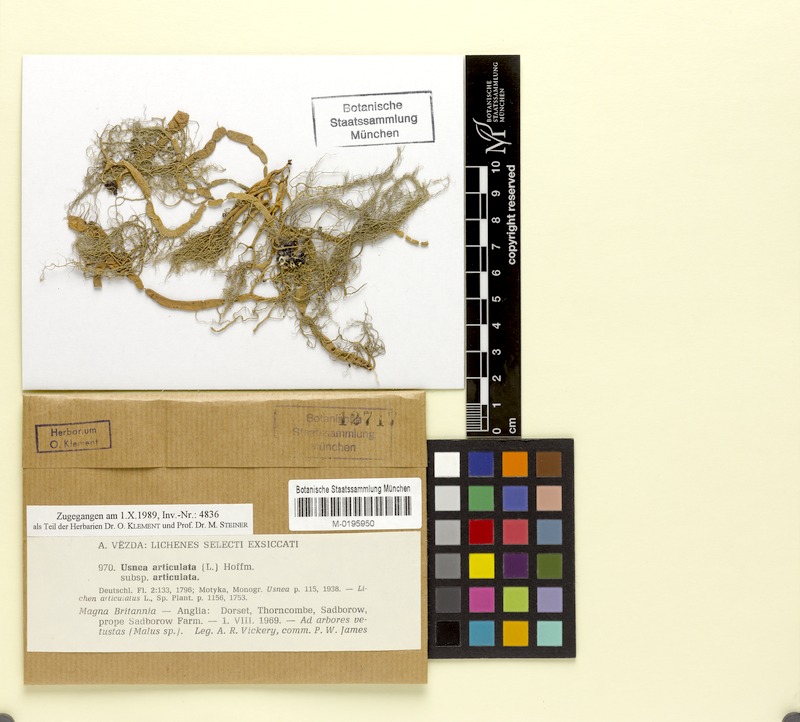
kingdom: Fungi
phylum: Ascomycota
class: Lecanoromycetes
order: Lecanorales
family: Parmeliaceae
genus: Usnea
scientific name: Usnea articulata
